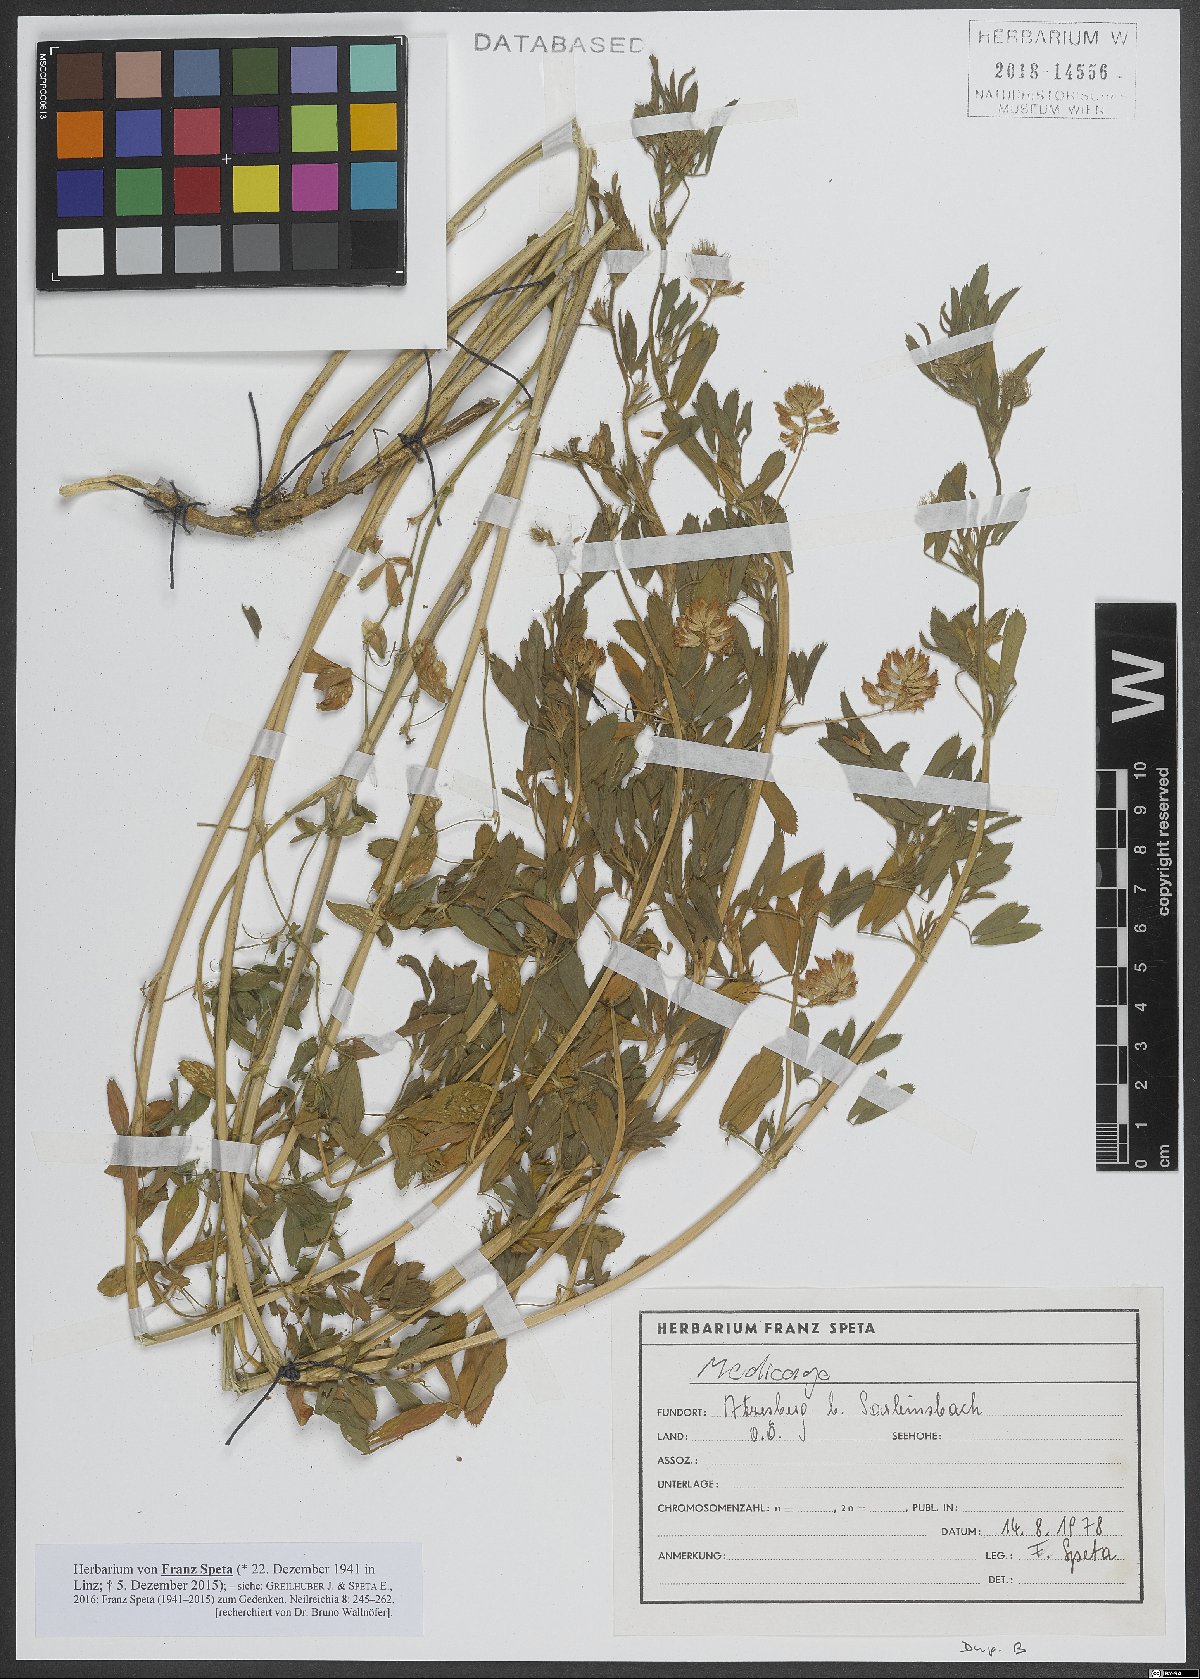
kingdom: Plantae
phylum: Tracheophyta
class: Magnoliopsida
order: Fabales
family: Fabaceae
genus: Medicago
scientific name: Medicago
